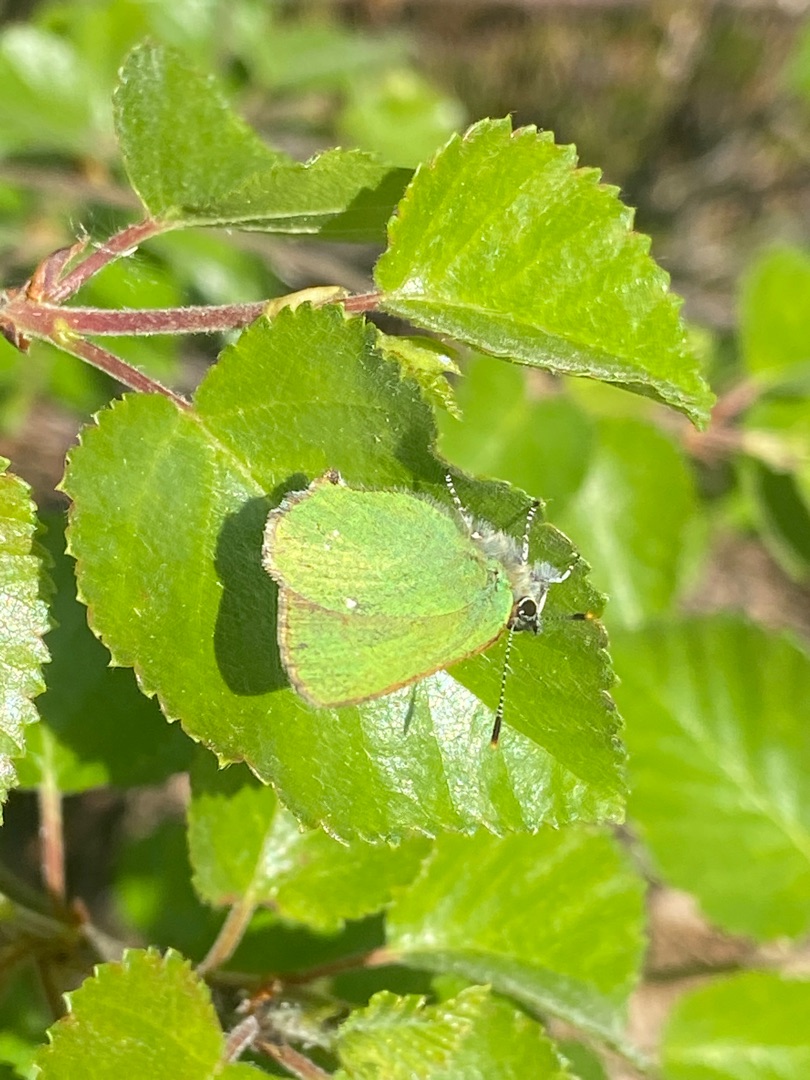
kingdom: Animalia
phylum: Arthropoda
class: Insecta
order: Lepidoptera
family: Lycaenidae
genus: Callophrys
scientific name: Callophrys rubi
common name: Grøn busksommerfugl
